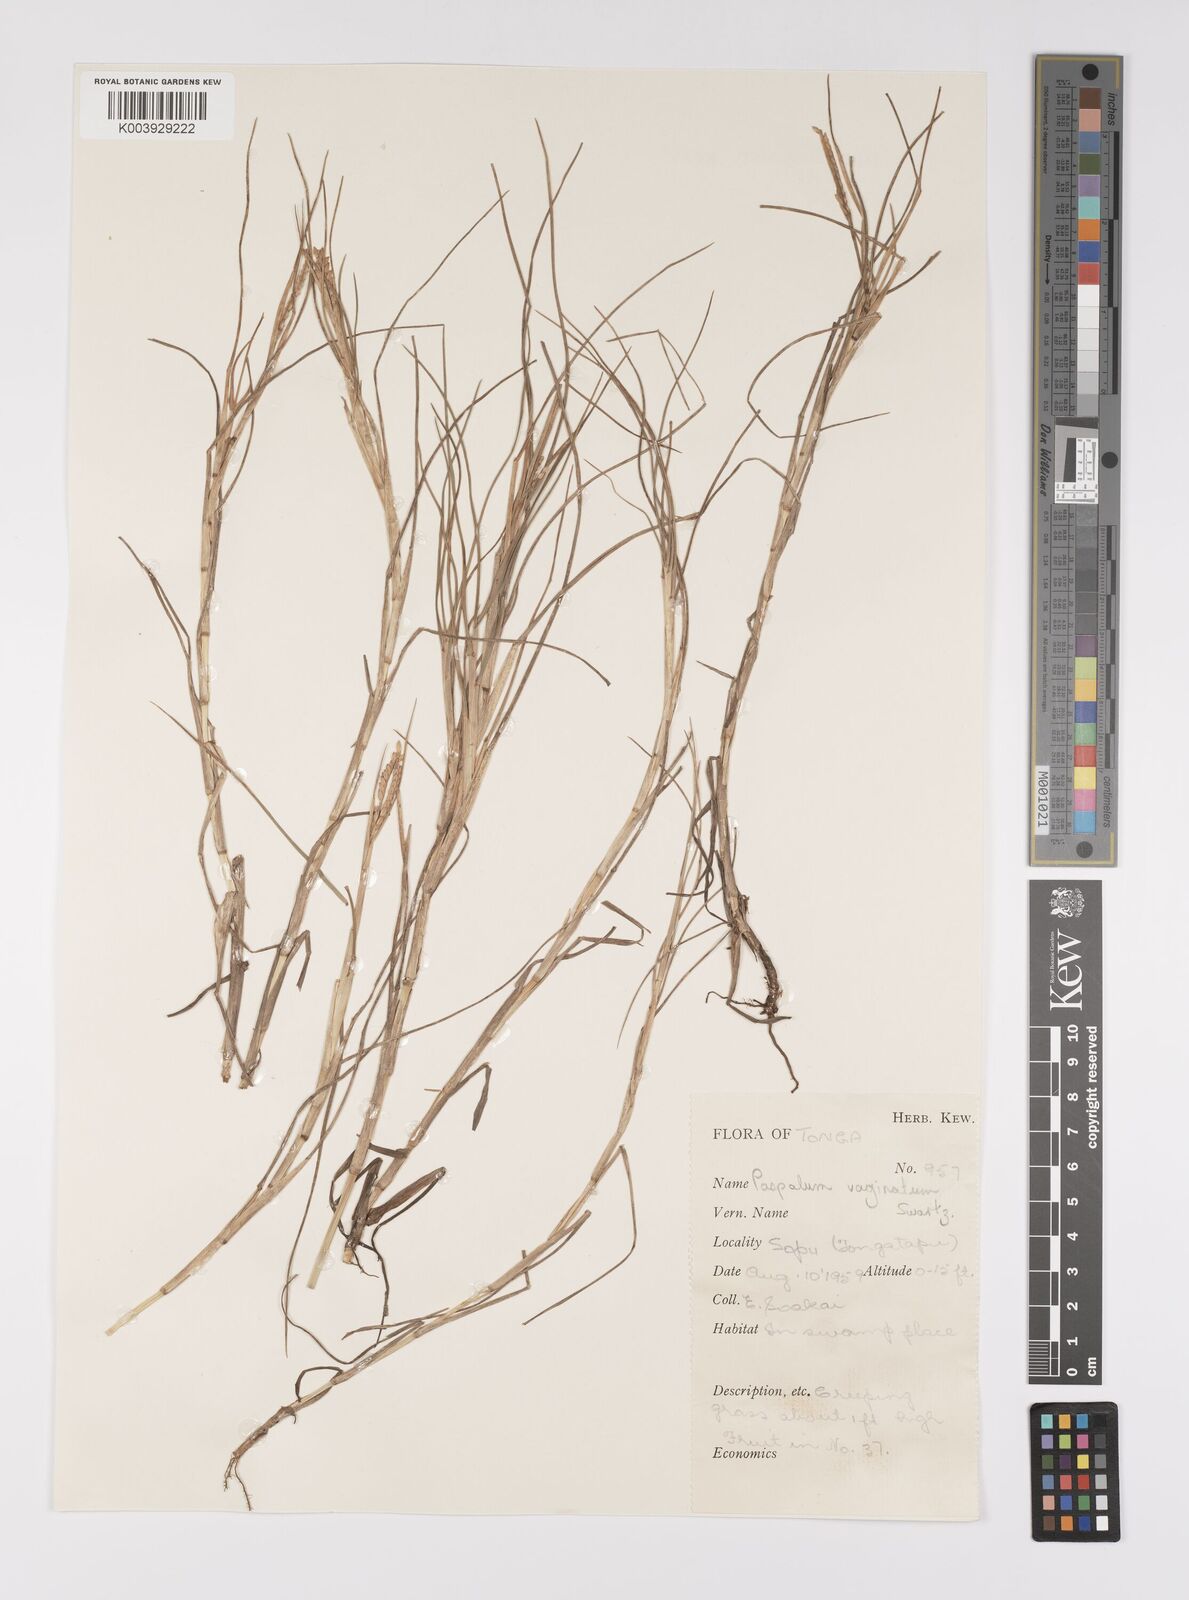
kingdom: Plantae
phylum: Tracheophyta
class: Liliopsida
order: Poales
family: Poaceae
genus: Paspalum
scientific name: Paspalum vaginatum
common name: Seashore paspalum
